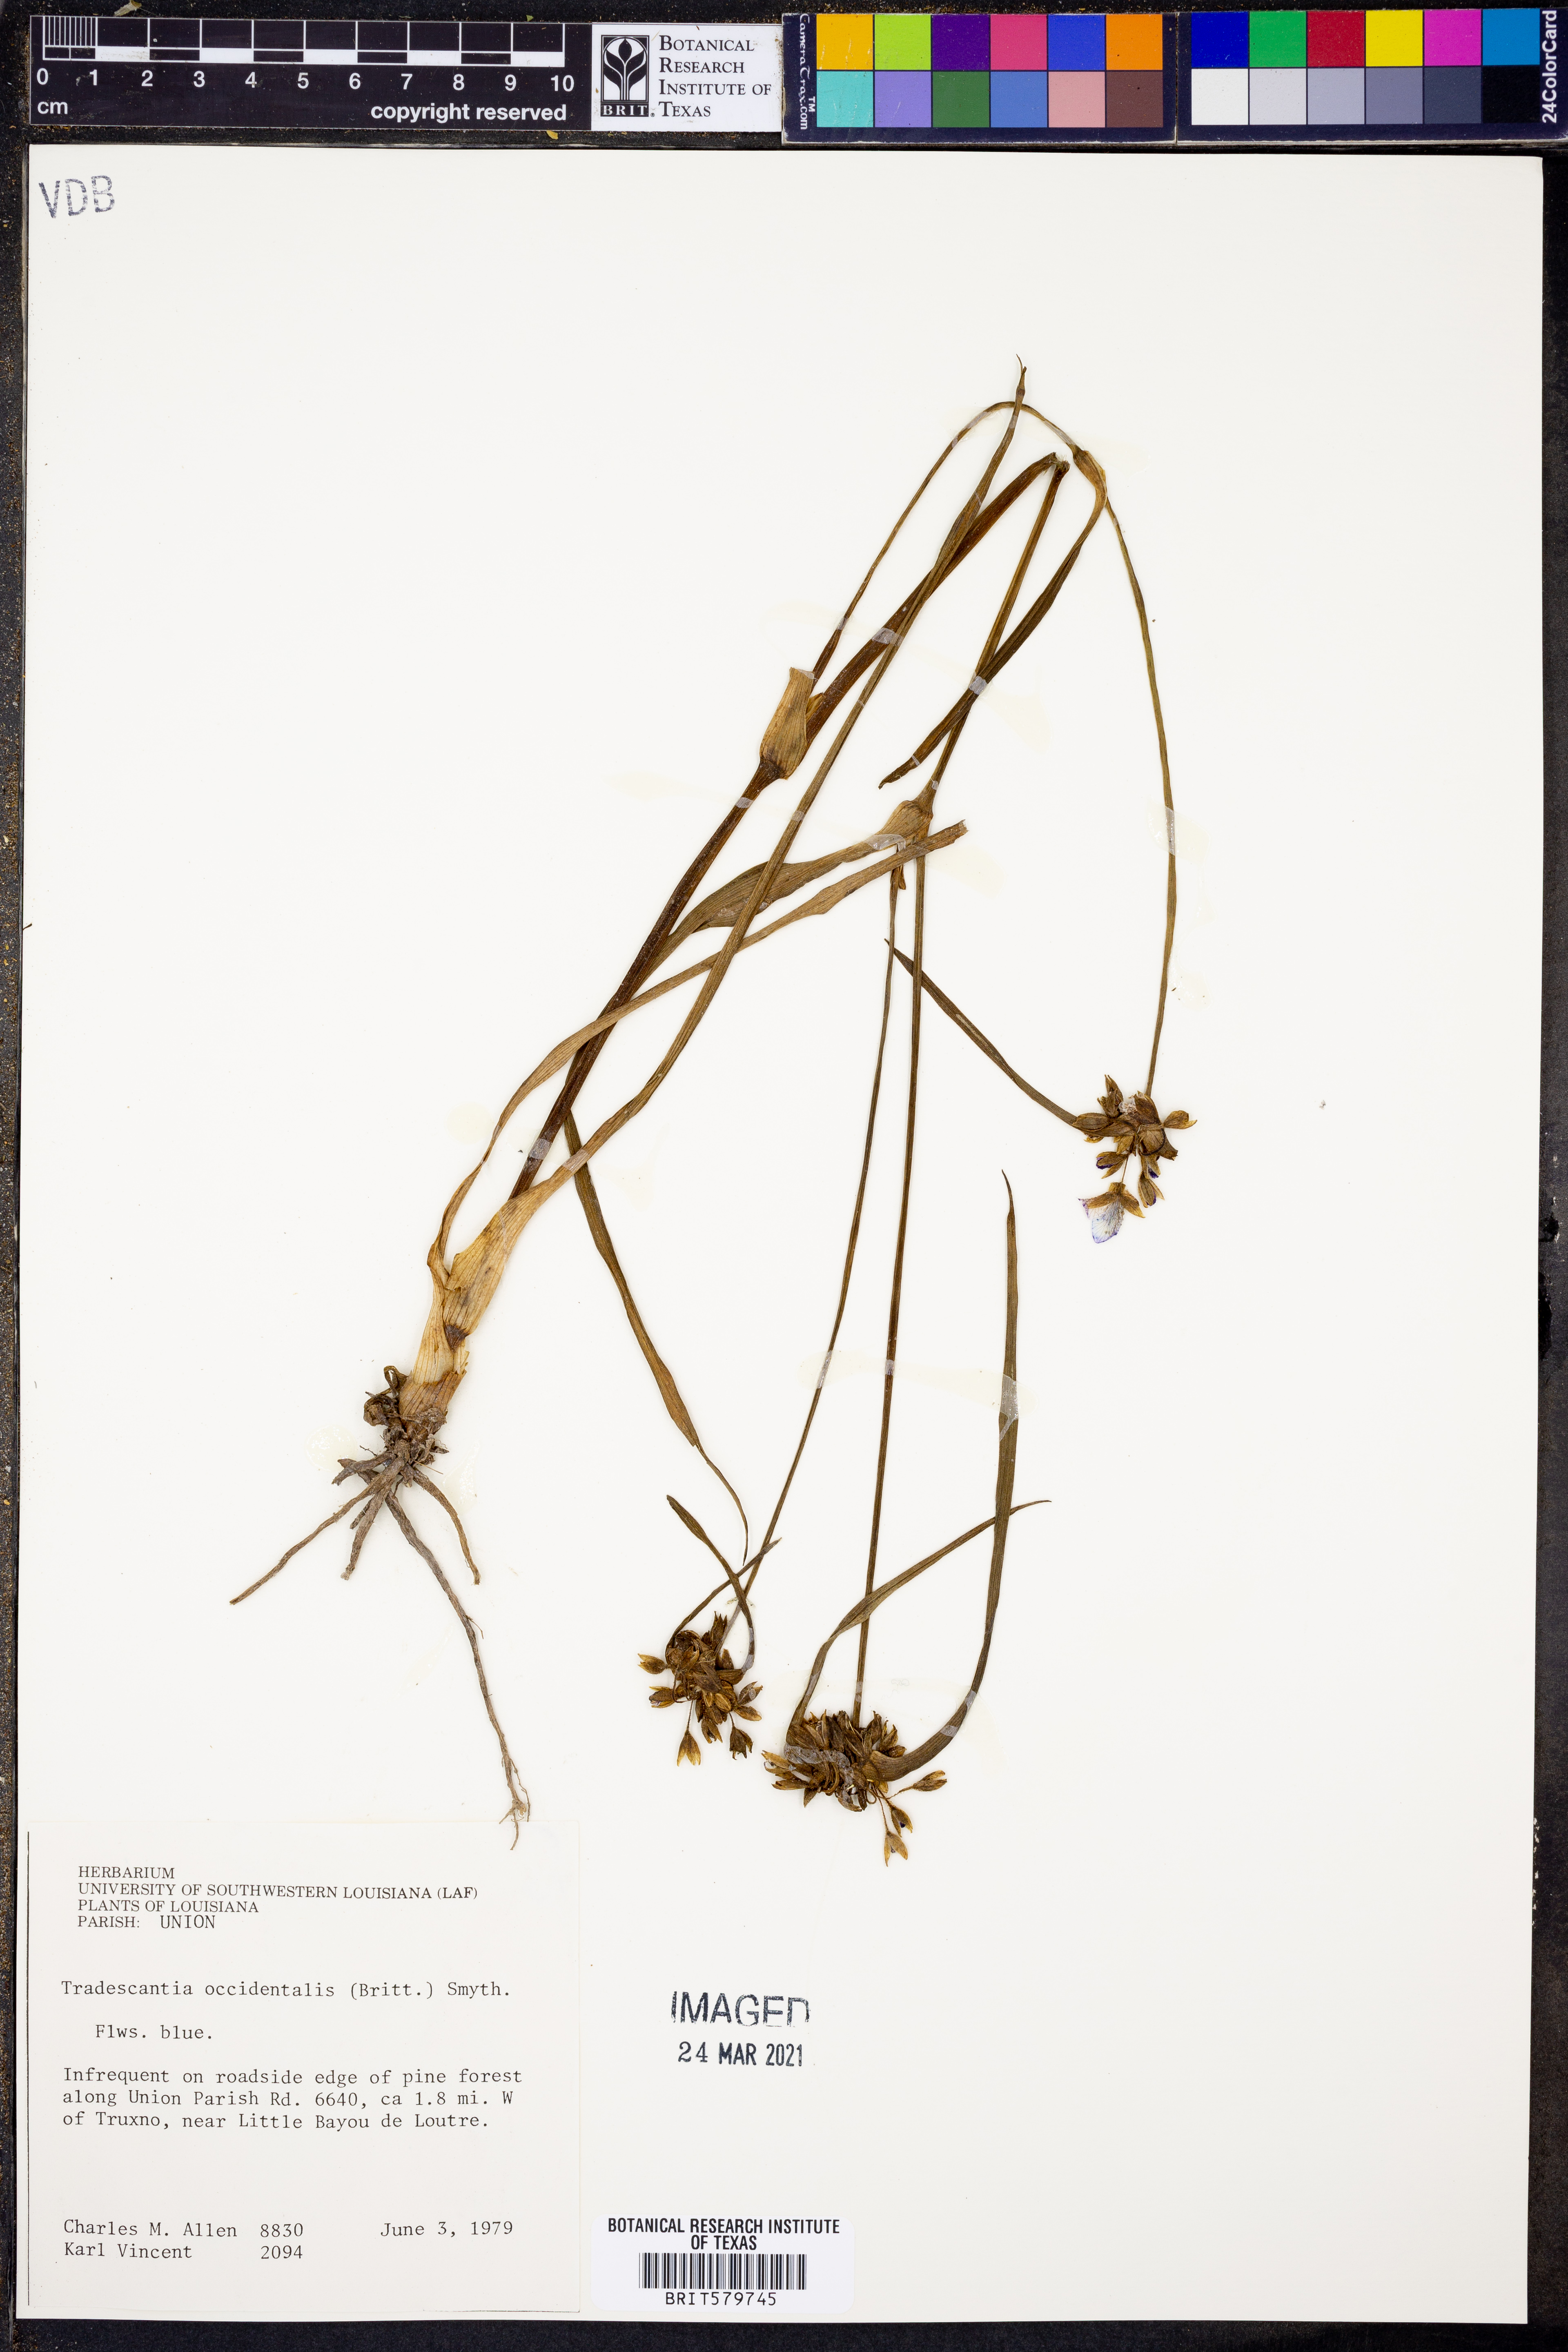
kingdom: Plantae
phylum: Tracheophyta
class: Liliopsida
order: Commelinales
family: Commelinaceae
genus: Tradescantia
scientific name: Tradescantia occidentalis
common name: Prairie spiderwort
